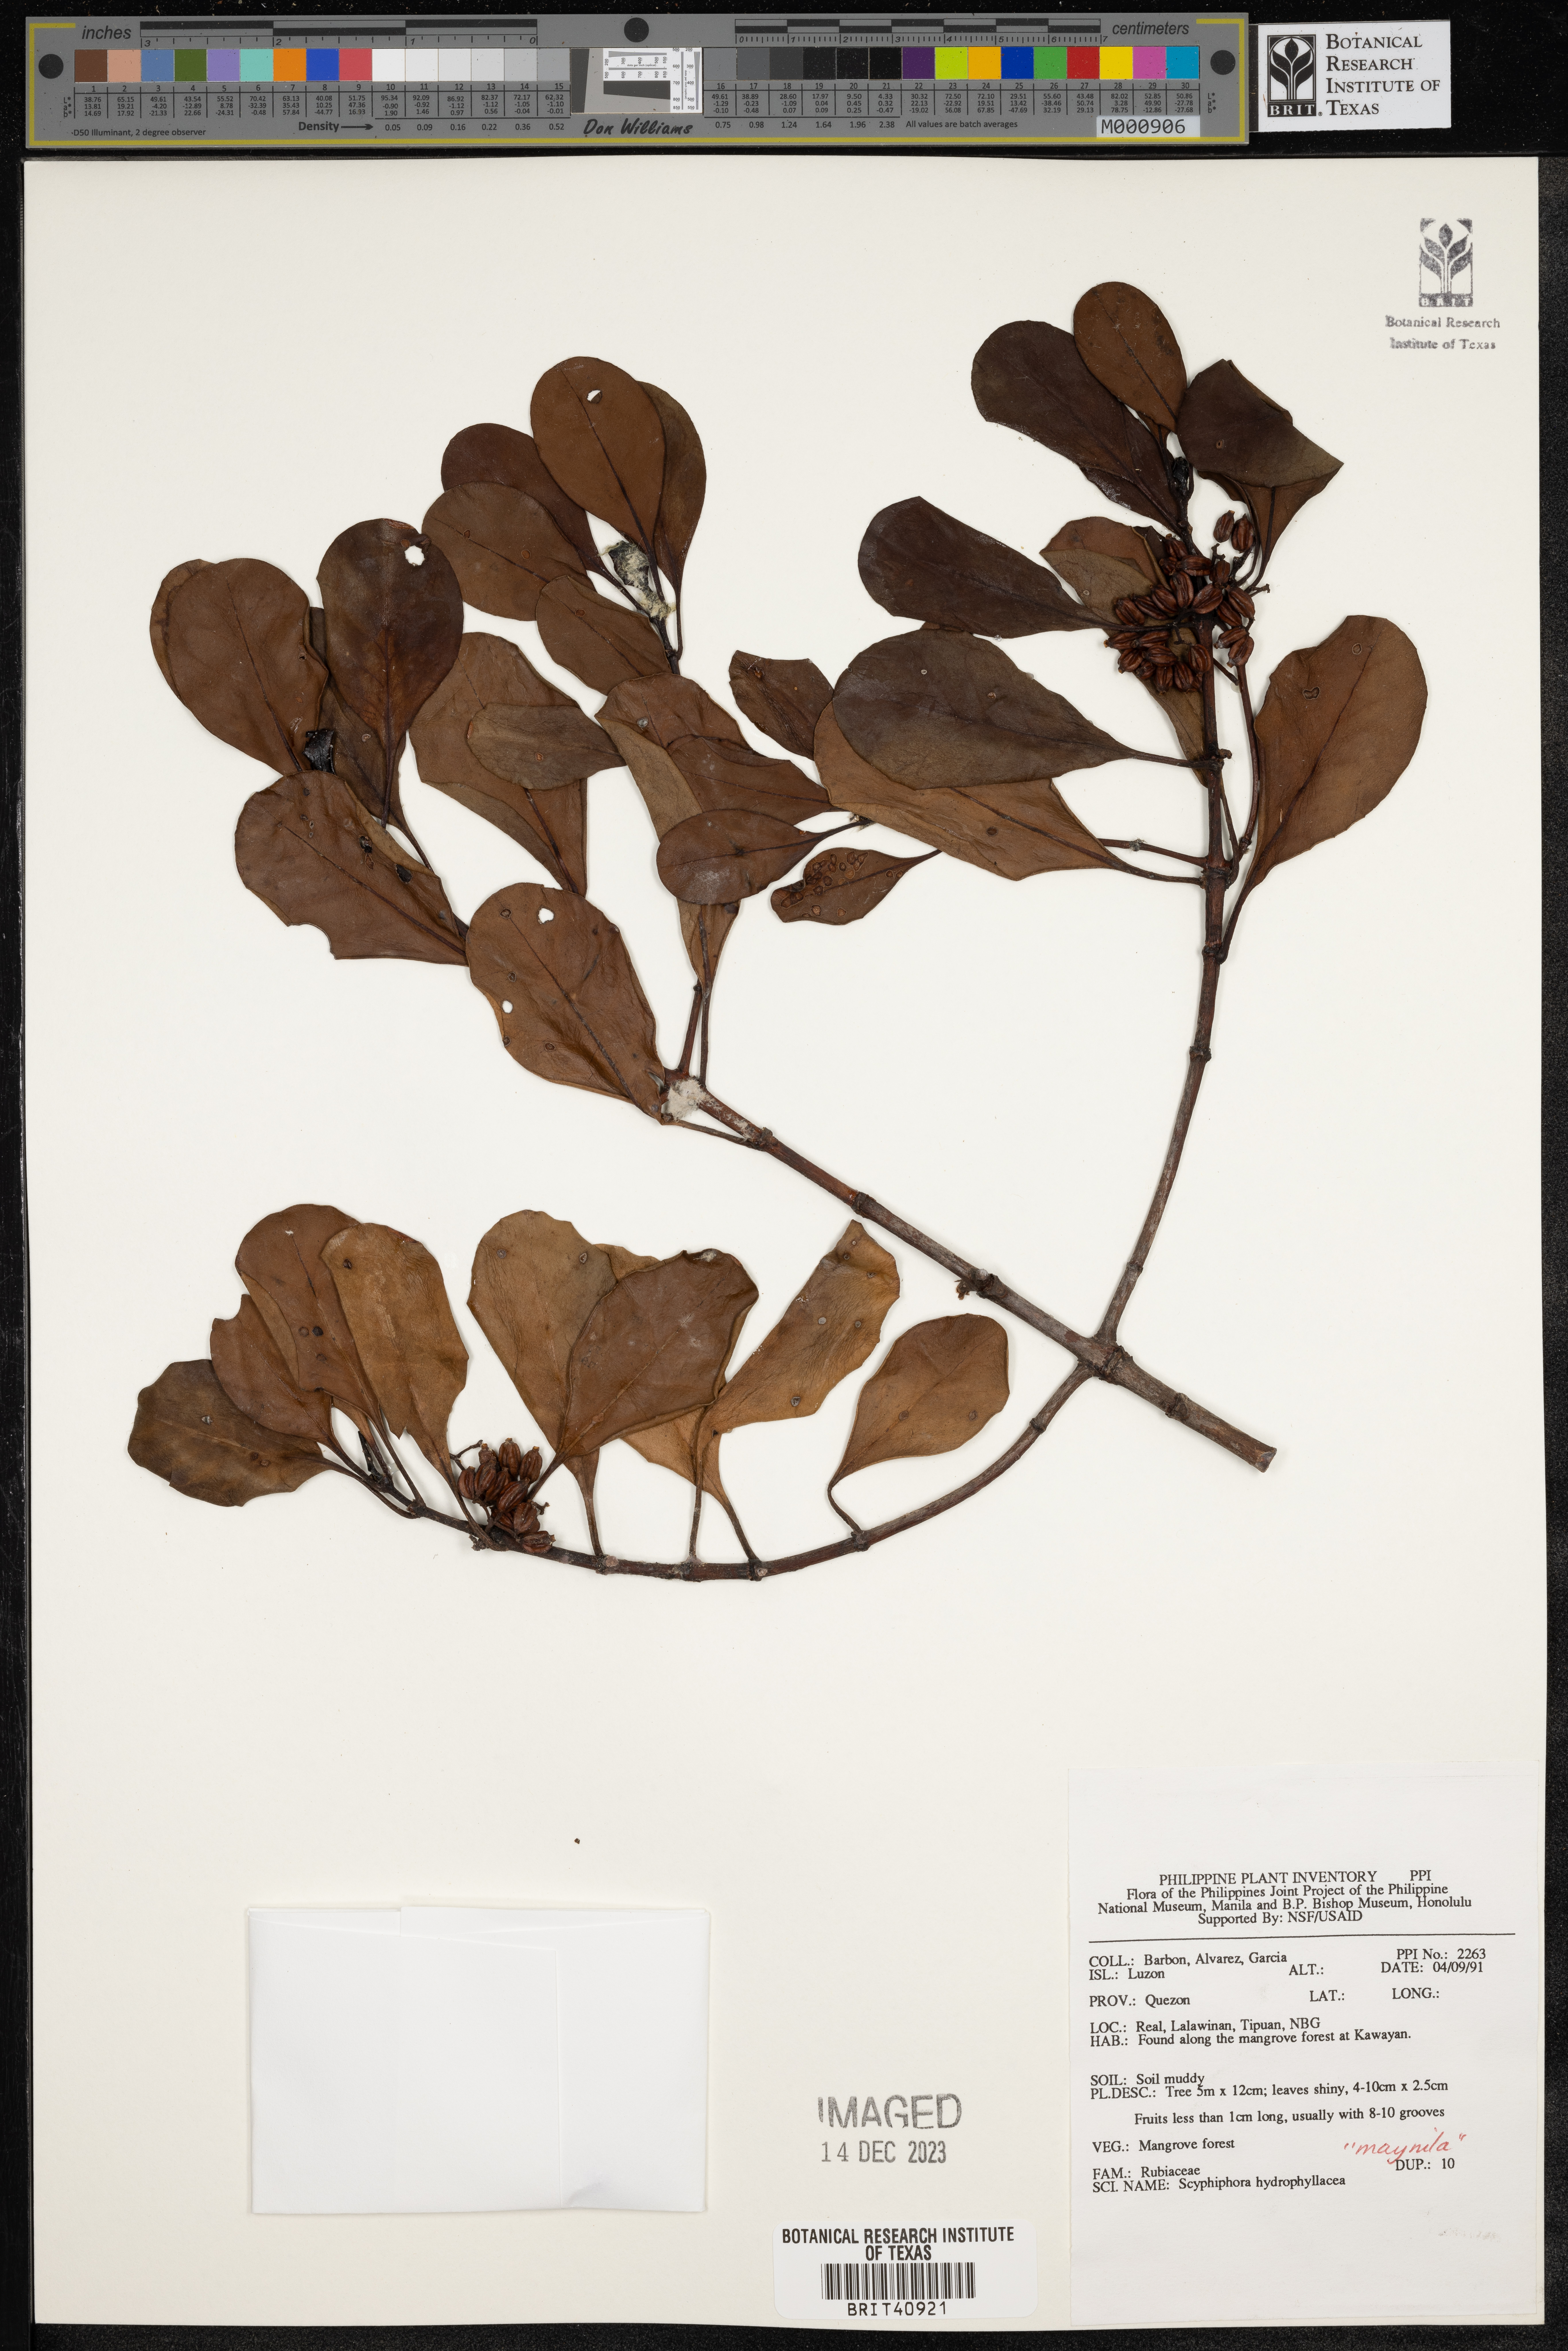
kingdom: Plantae
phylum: Tracheophyta
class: Magnoliopsida
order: Gentianales
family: Rubiaceae
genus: Scyphiphora
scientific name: Scyphiphora hydrophylacea
